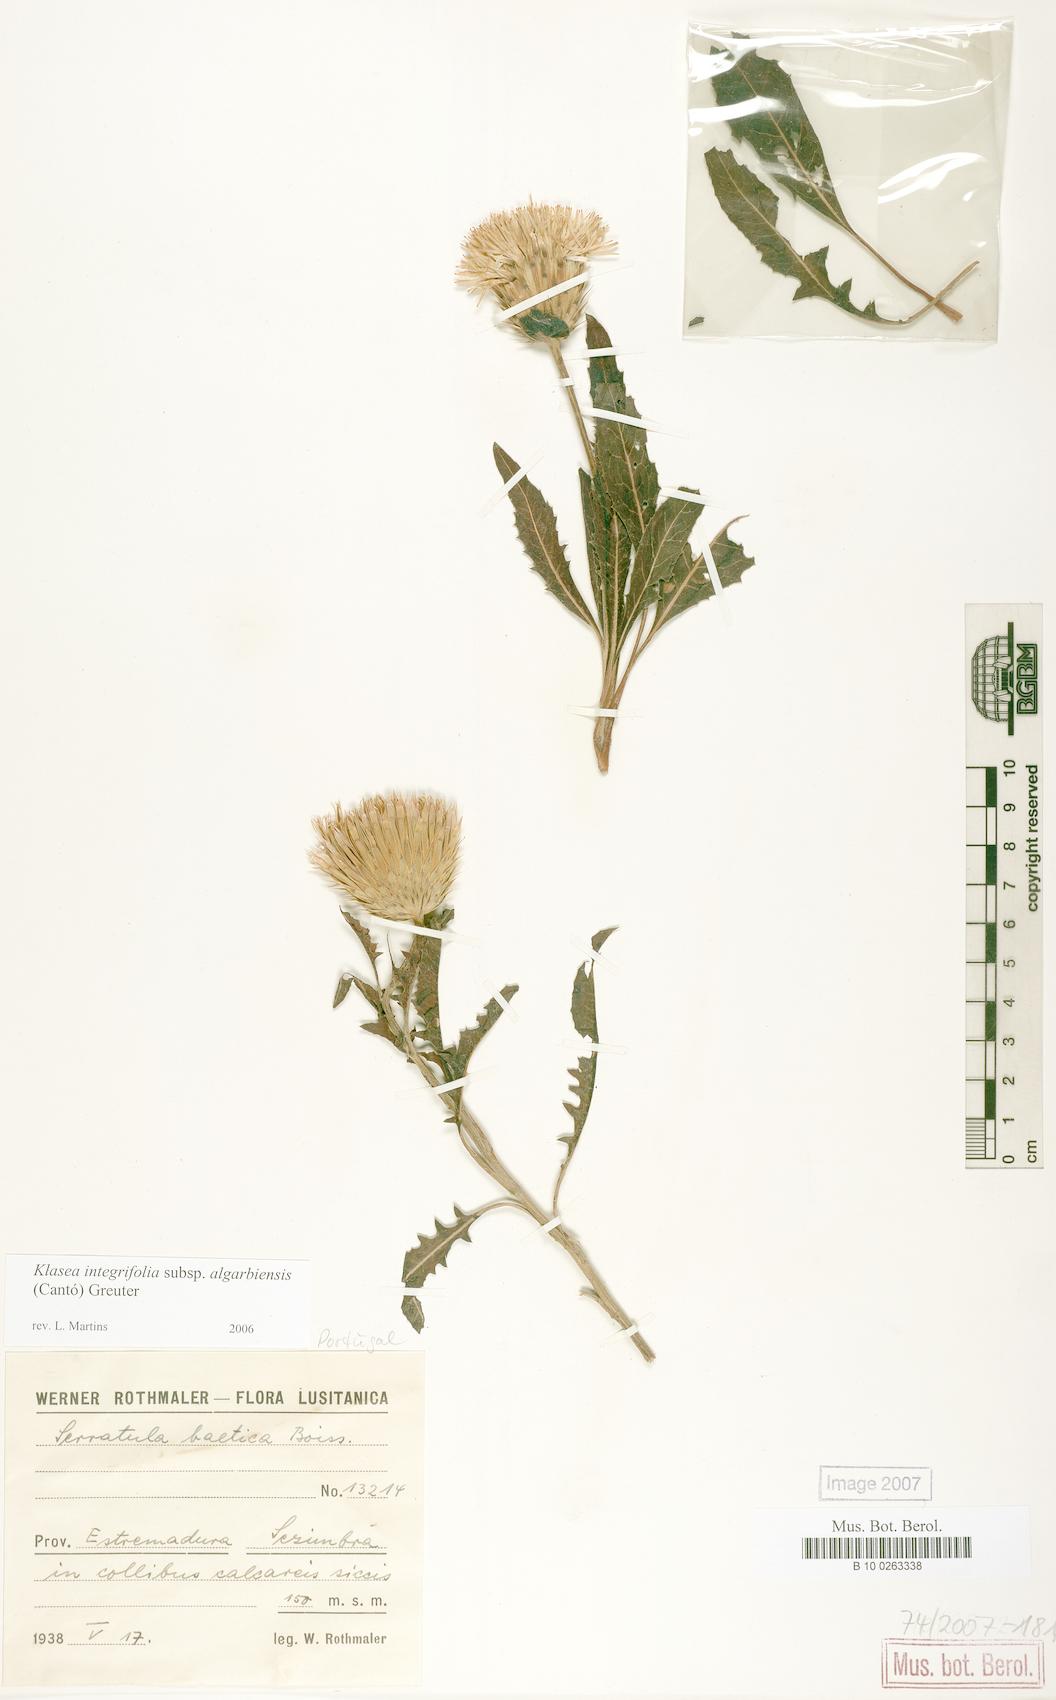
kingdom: Plantae
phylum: Tracheophyta
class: Magnoliopsida
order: Asterales
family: Asteraceae
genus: Klasea
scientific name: Klasea algarbiensis
